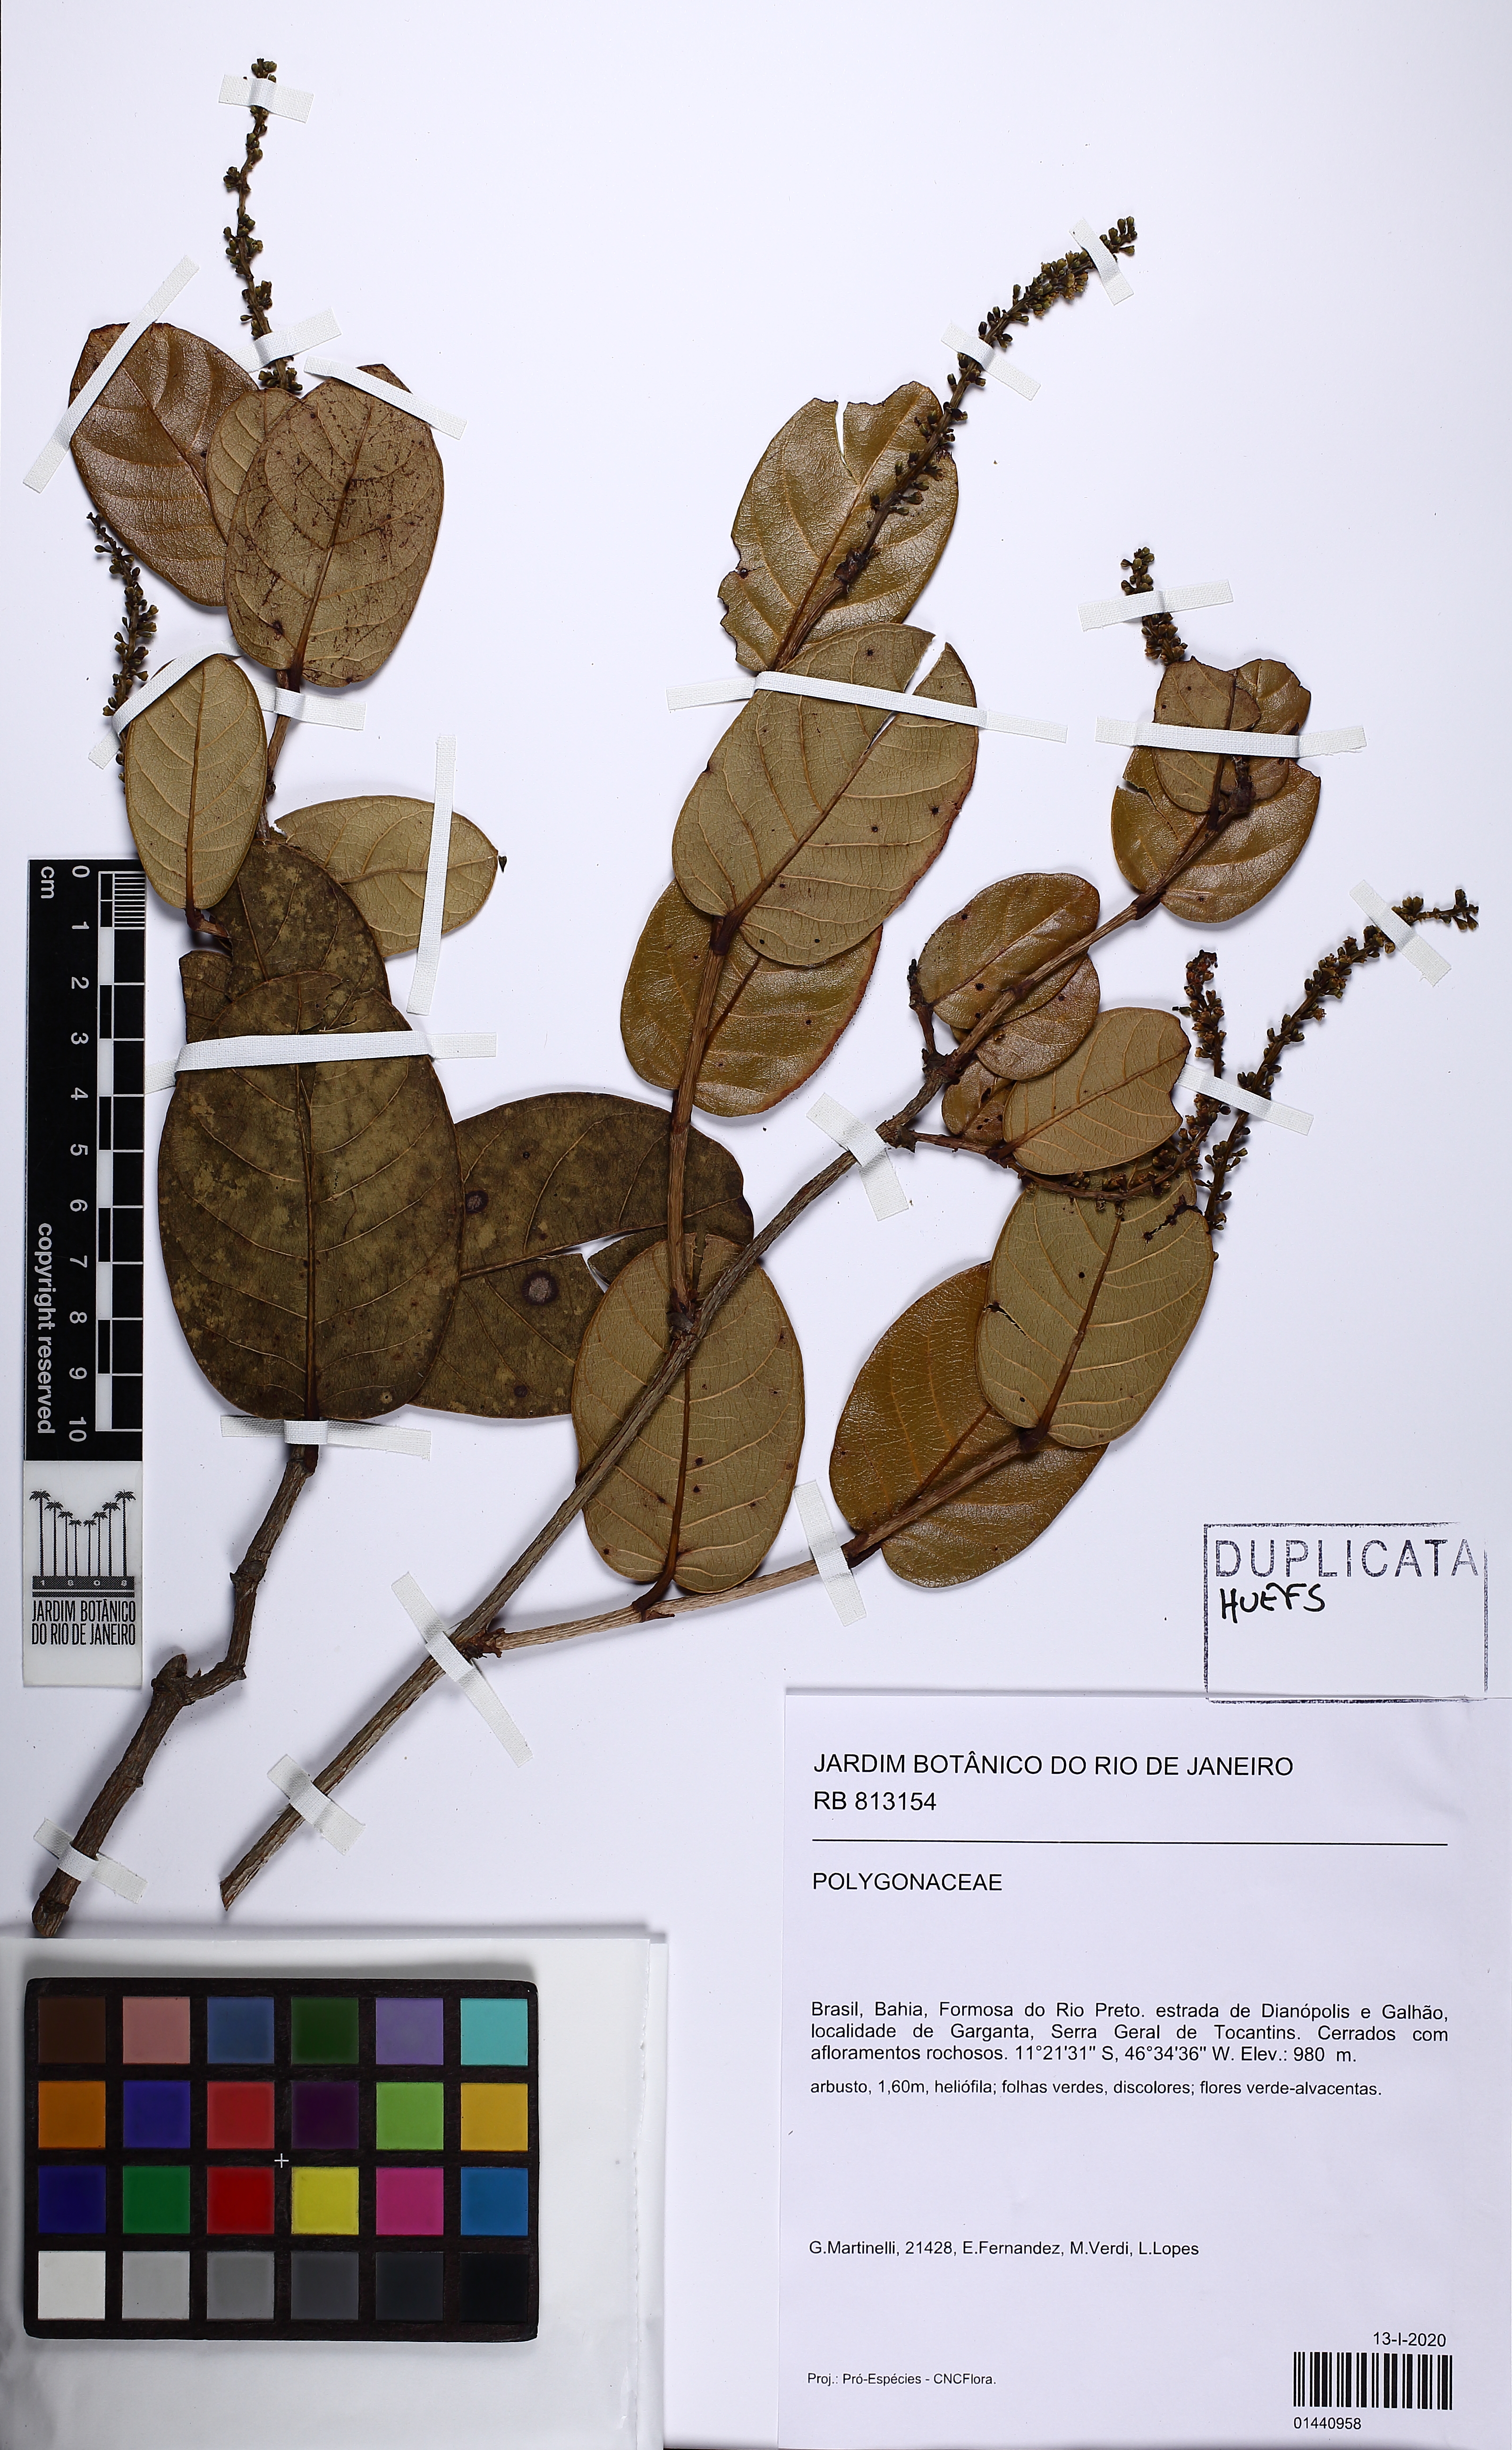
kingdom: Plantae
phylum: Tracheophyta
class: Magnoliopsida
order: Caryophyllales
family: Polygonaceae
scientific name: Polygonaceae
